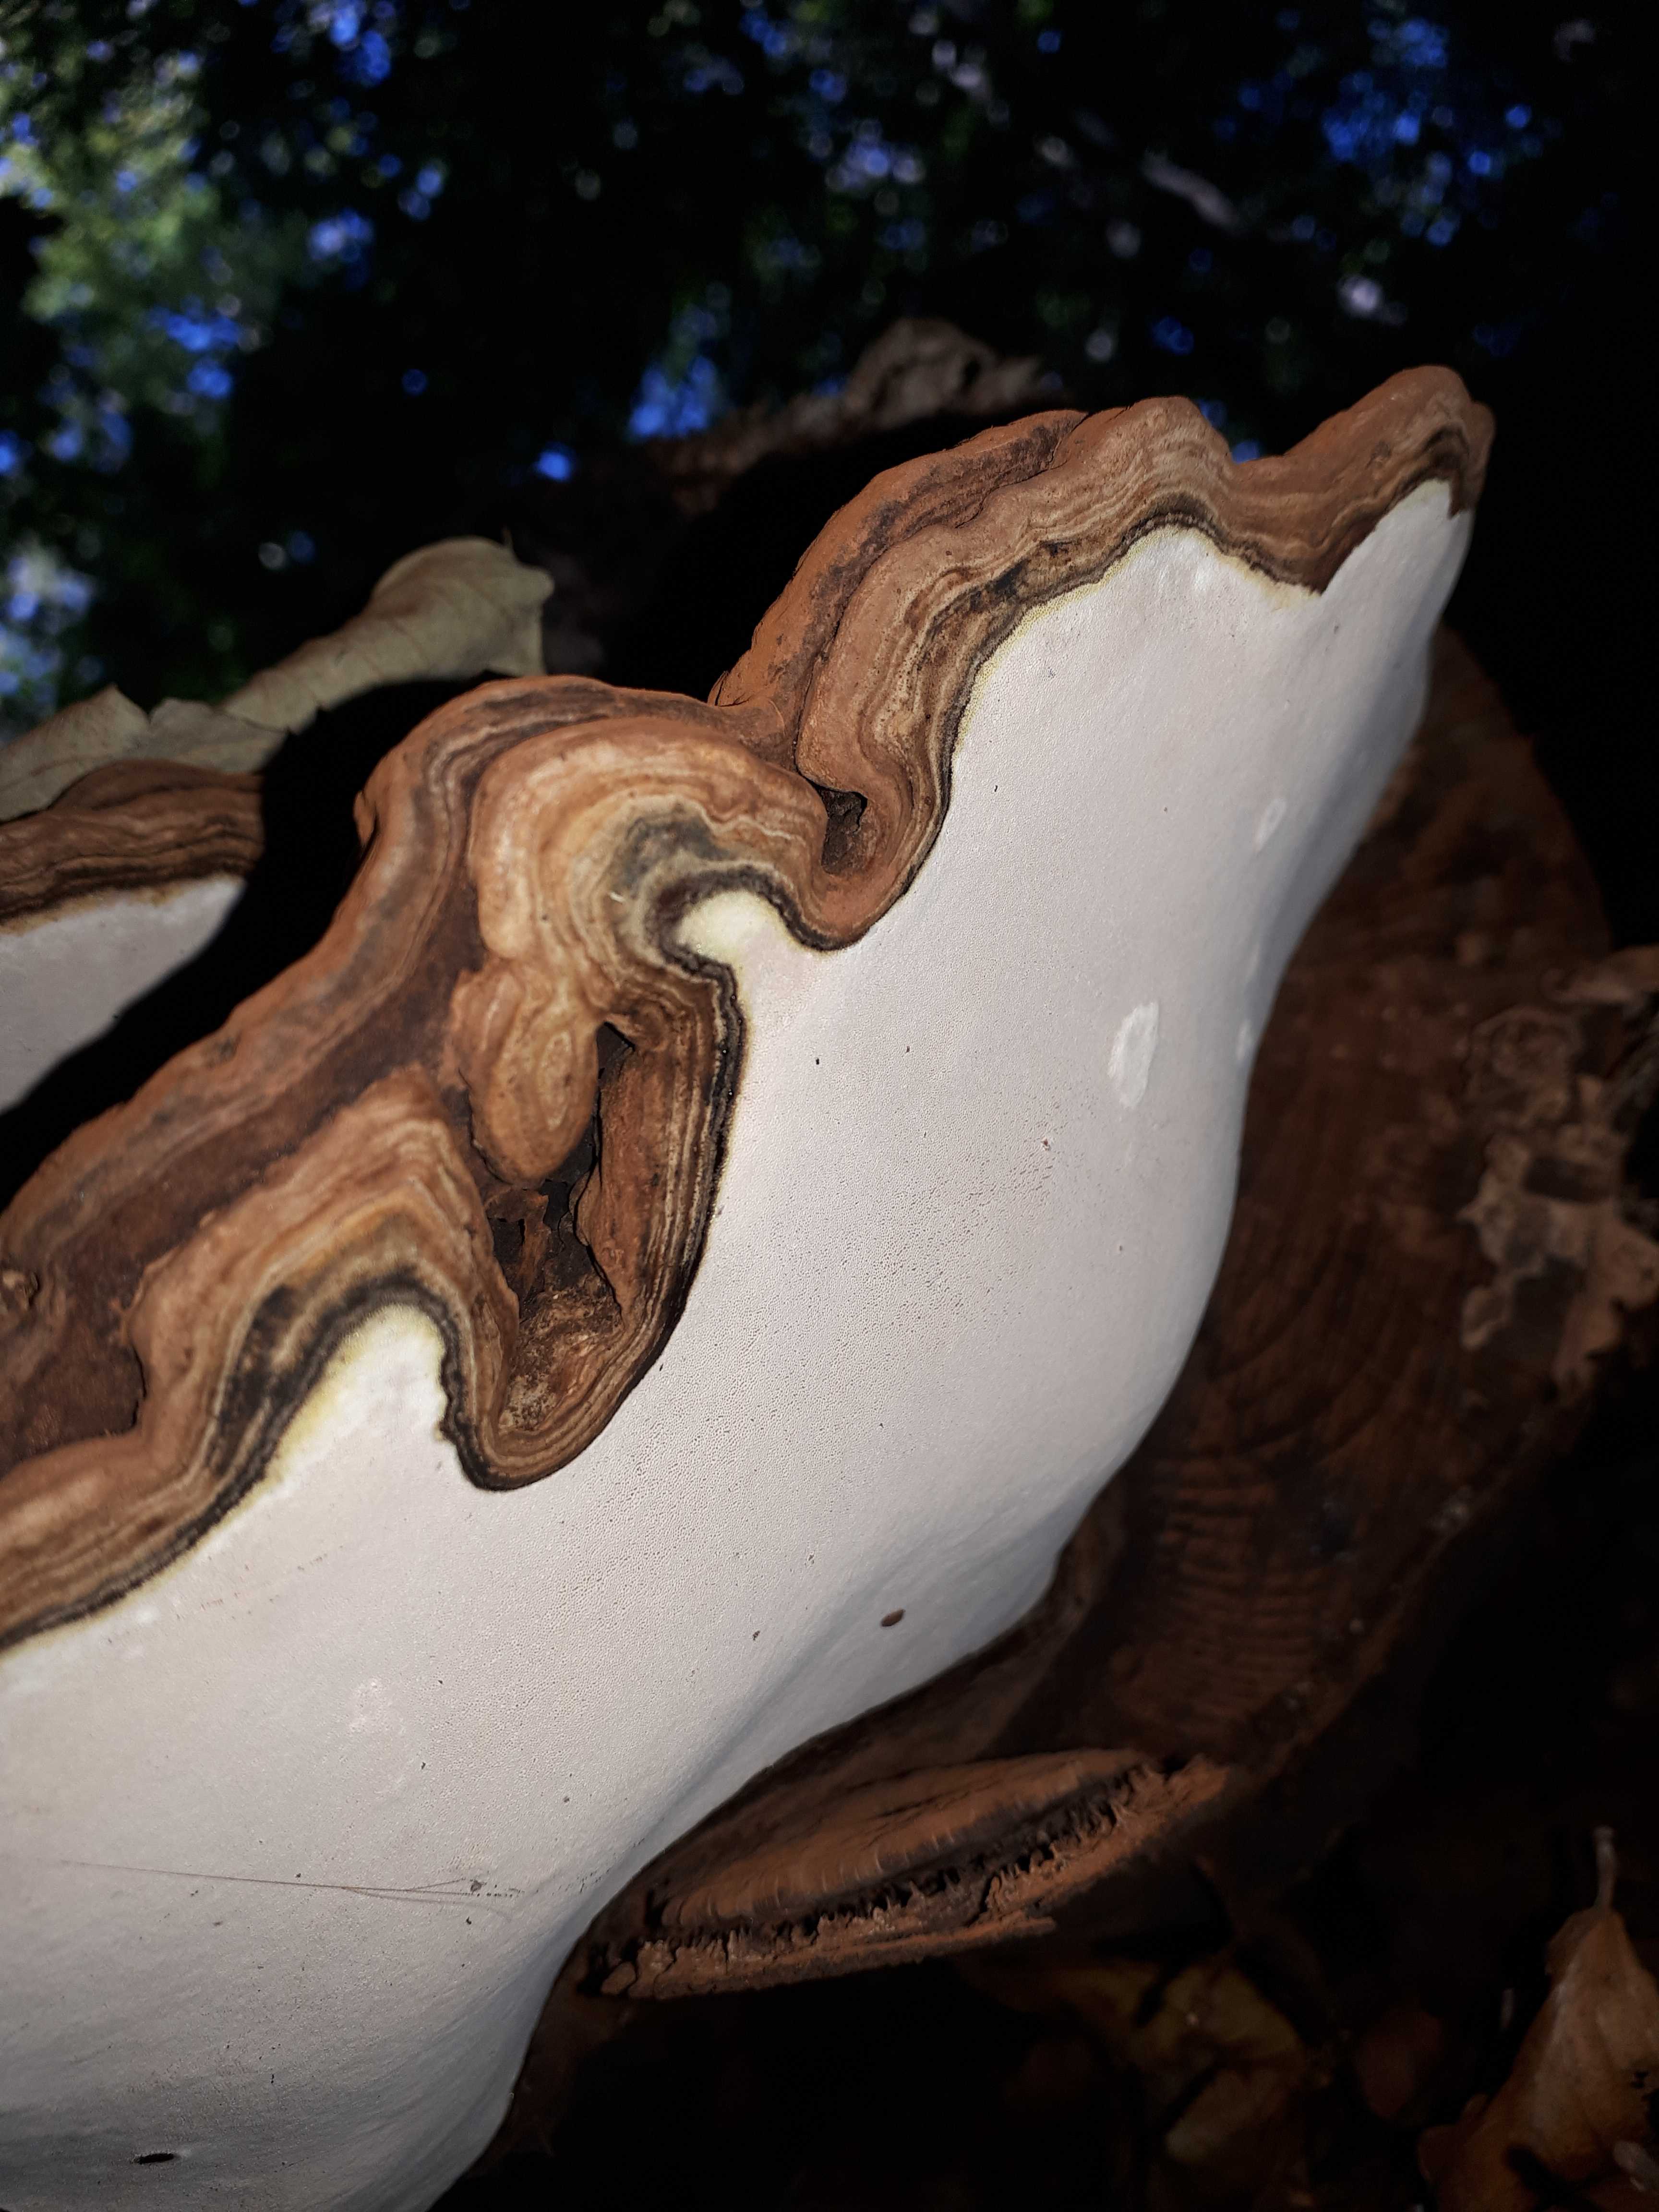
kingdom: Fungi
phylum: Basidiomycota
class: Agaricomycetes
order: Polyporales
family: Polyporaceae
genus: Ganoderma
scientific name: Ganoderma applanatum
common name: flad lakporesvamp
